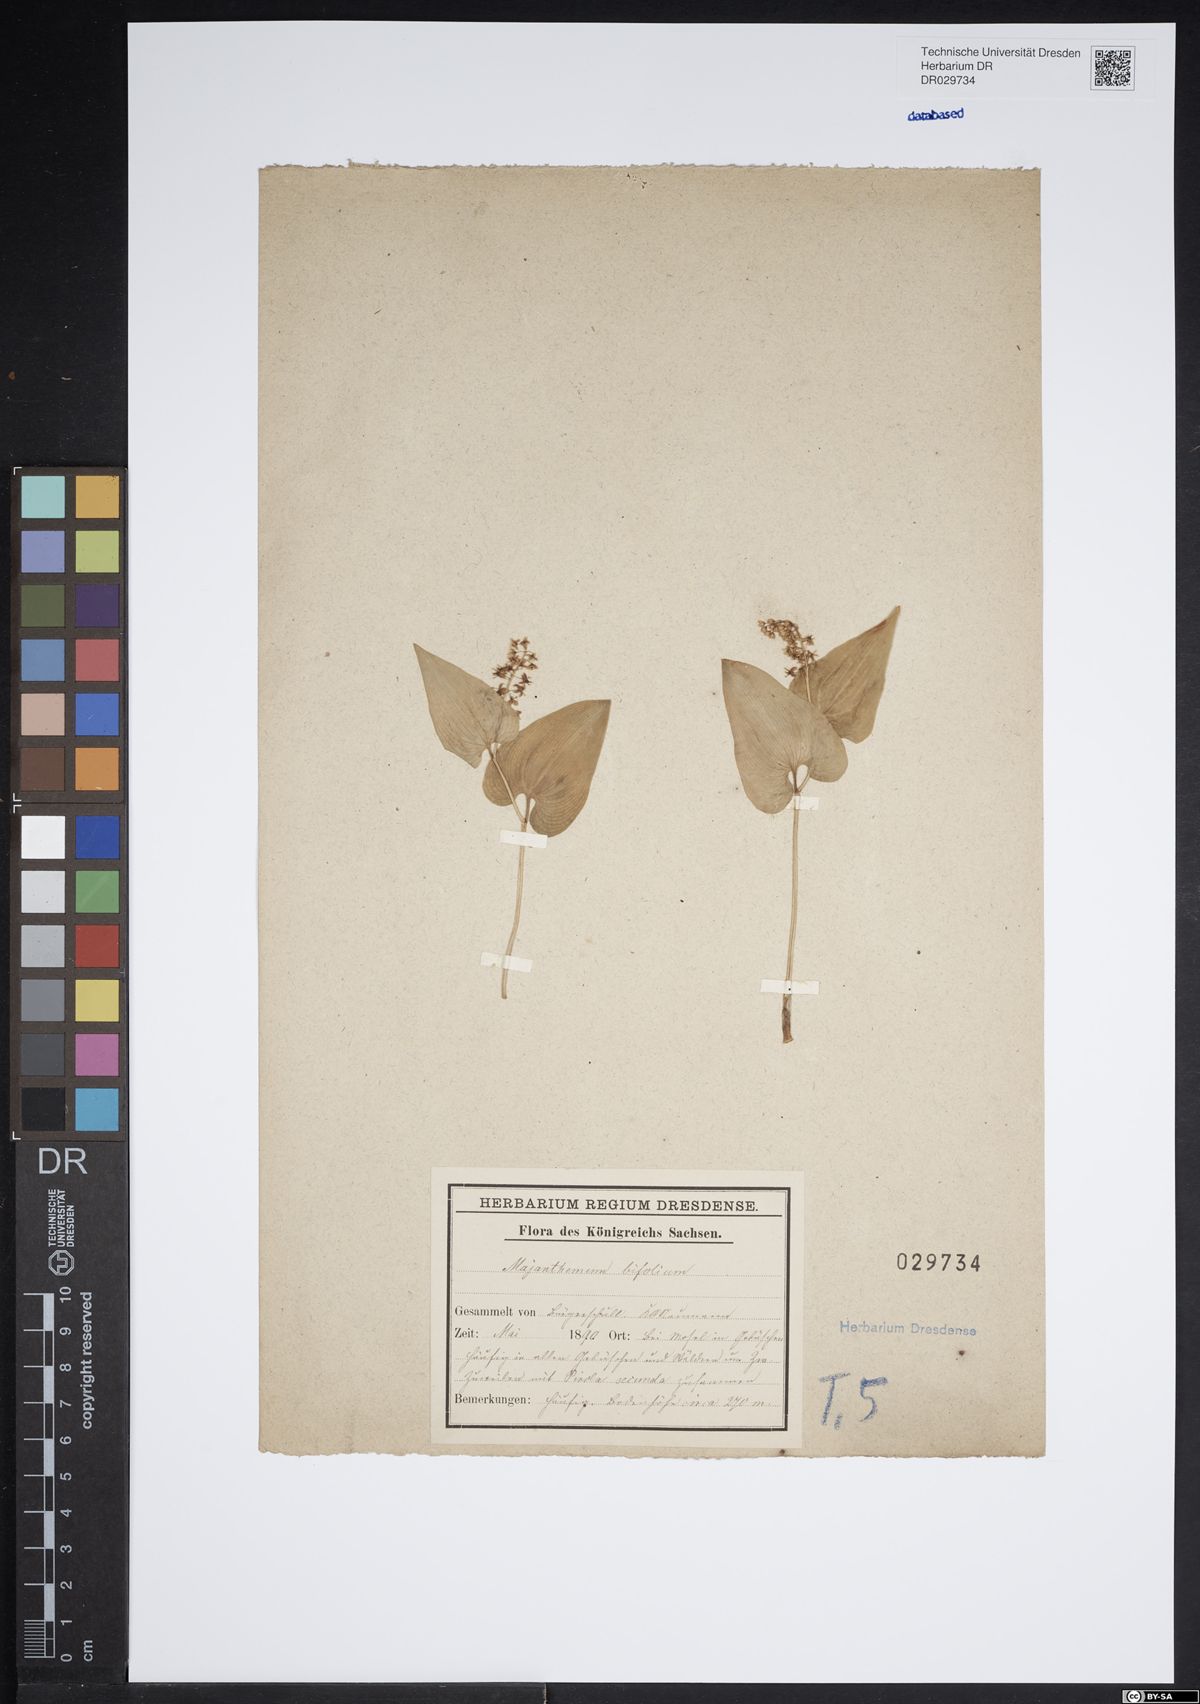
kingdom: Plantae
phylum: Tracheophyta
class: Liliopsida
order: Asparagales
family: Asparagaceae
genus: Maianthemum
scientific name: Maianthemum bifolium
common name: May lily
